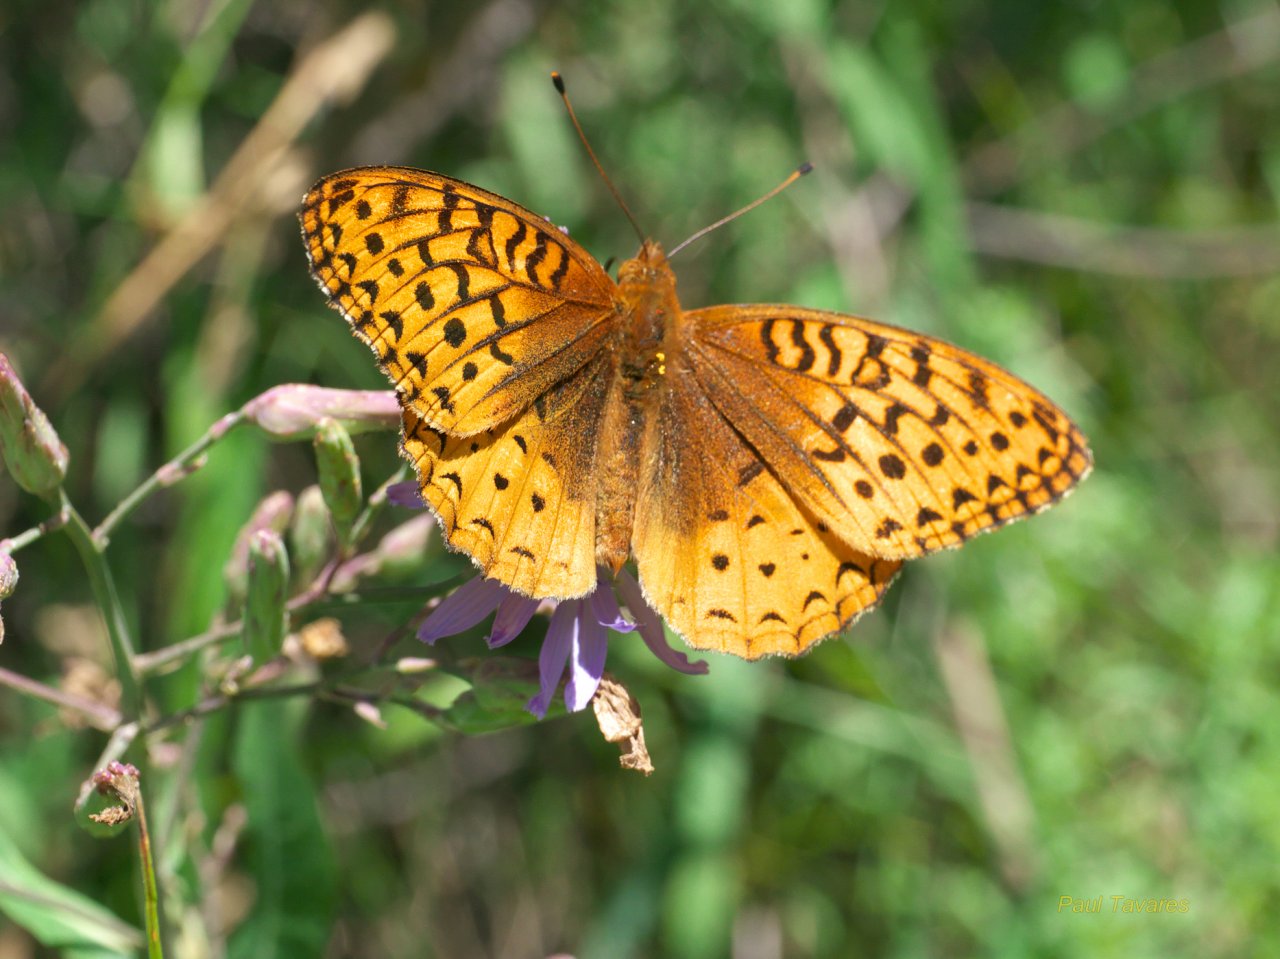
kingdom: Animalia
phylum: Arthropoda
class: Insecta
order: Lepidoptera
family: Nymphalidae
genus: Speyeria
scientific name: Speyeria cybele
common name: Great Spangled Fritillary
